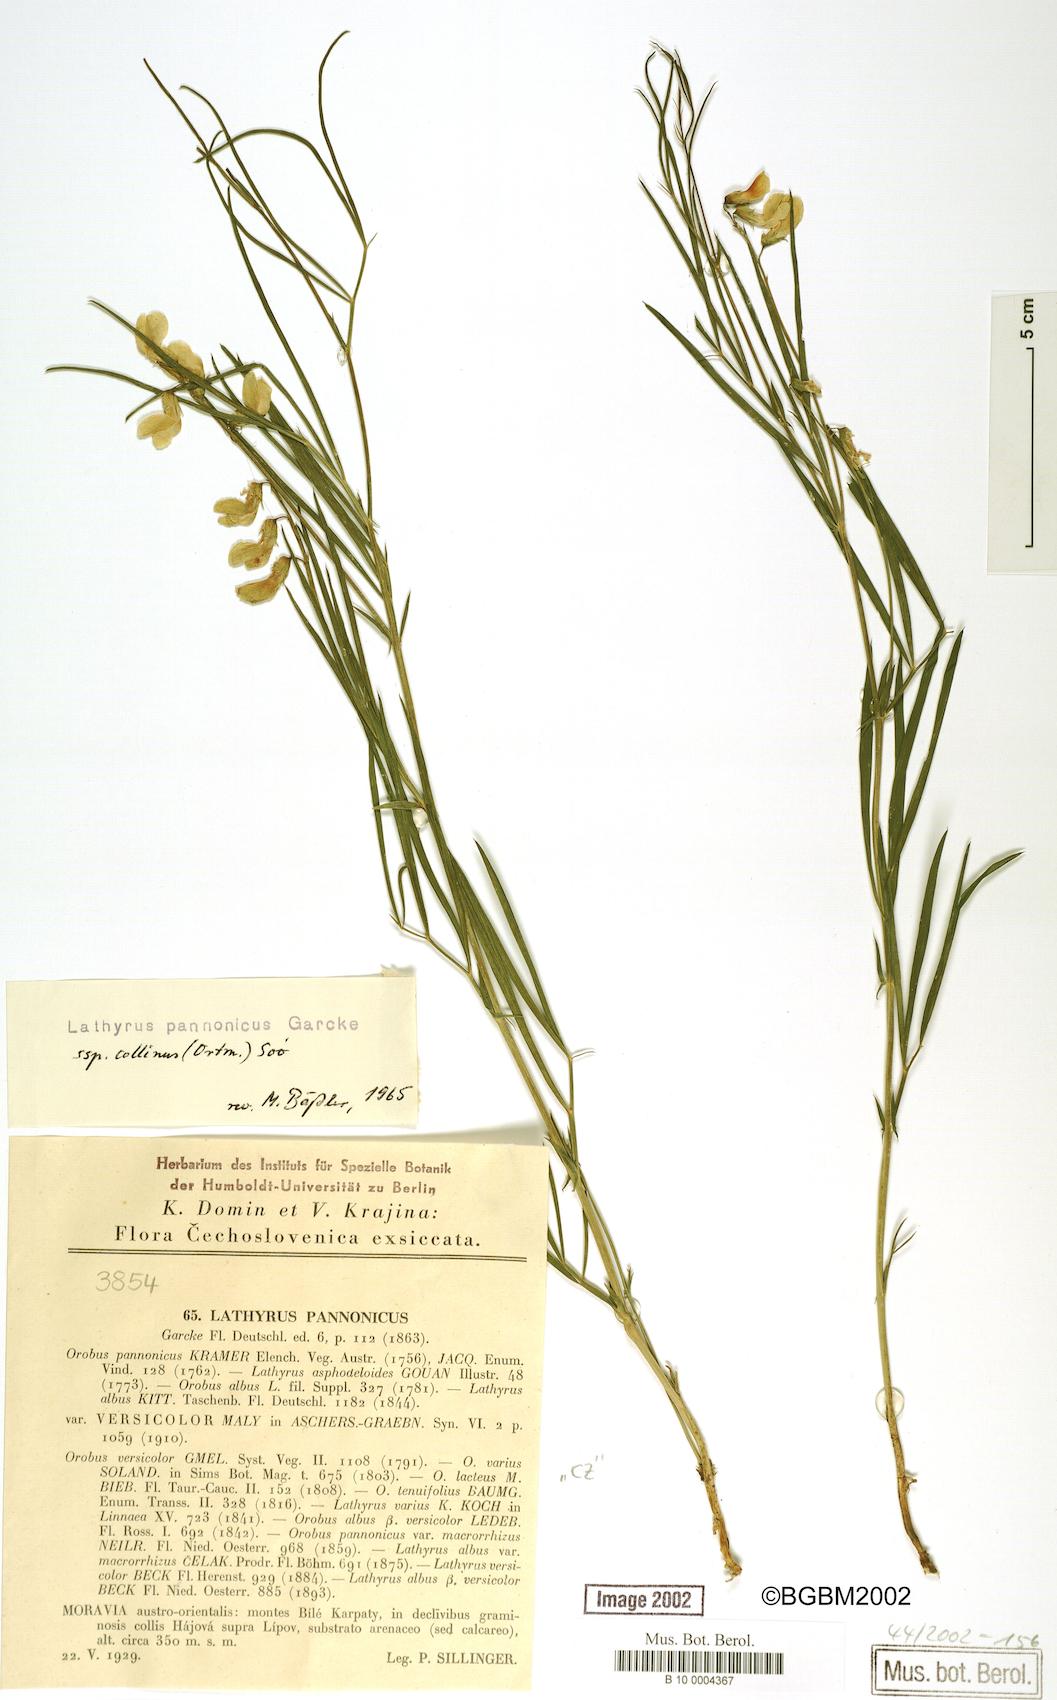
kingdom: Plantae
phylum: Tracheophyta
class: Magnoliopsida
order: Fabales
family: Fabaceae
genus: Lathyrus
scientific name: Lathyrus pannonicus
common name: Pea
